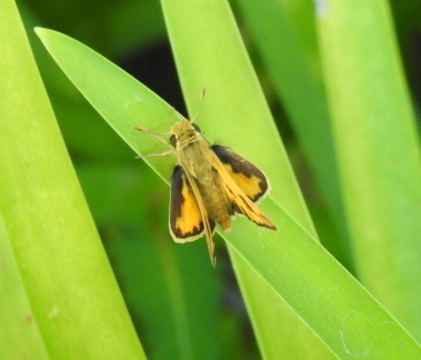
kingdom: Animalia
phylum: Arthropoda
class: Insecta
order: Lepidoptera
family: Hesperiidae
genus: Hylephila
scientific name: Hylephila phyleus
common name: Fiery Skipper
